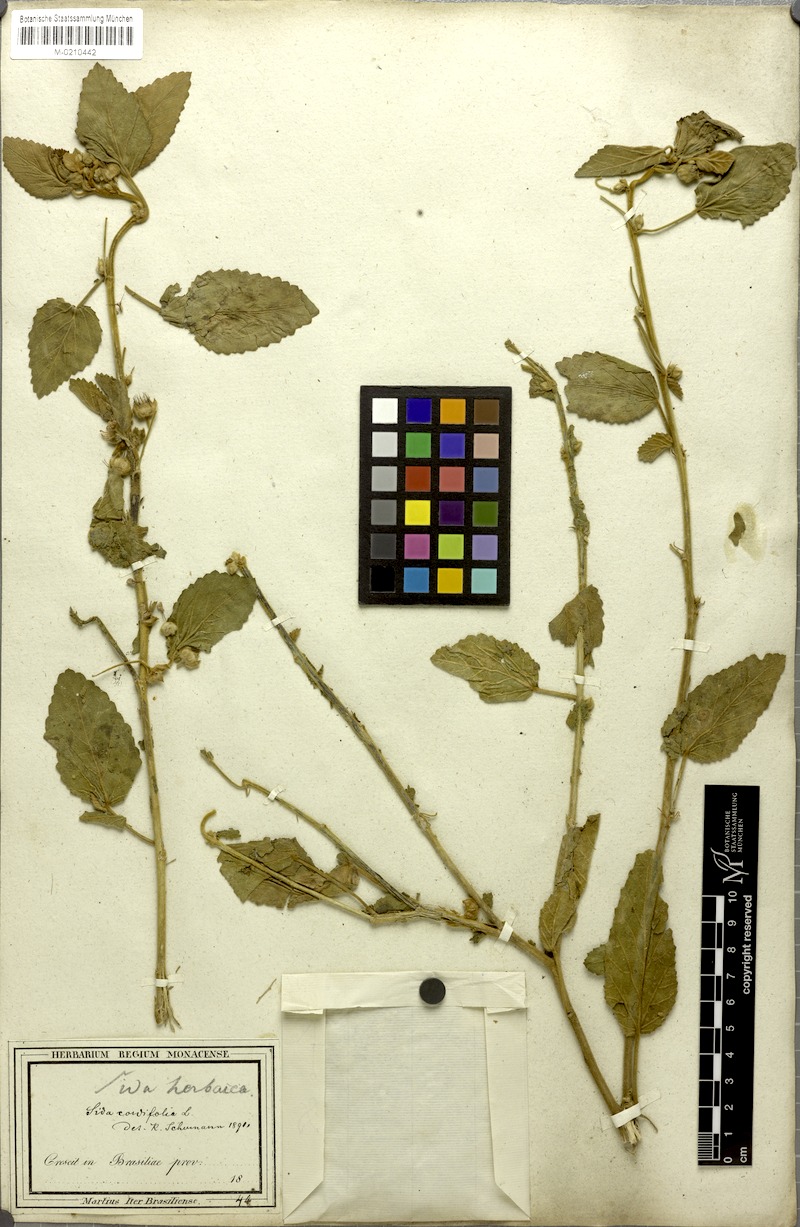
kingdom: Plantae
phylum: Tracheophyta
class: Magnoliopsida
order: Malvales
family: Malvaceae
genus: Sida
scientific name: Sida cordifolia
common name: Ilima
